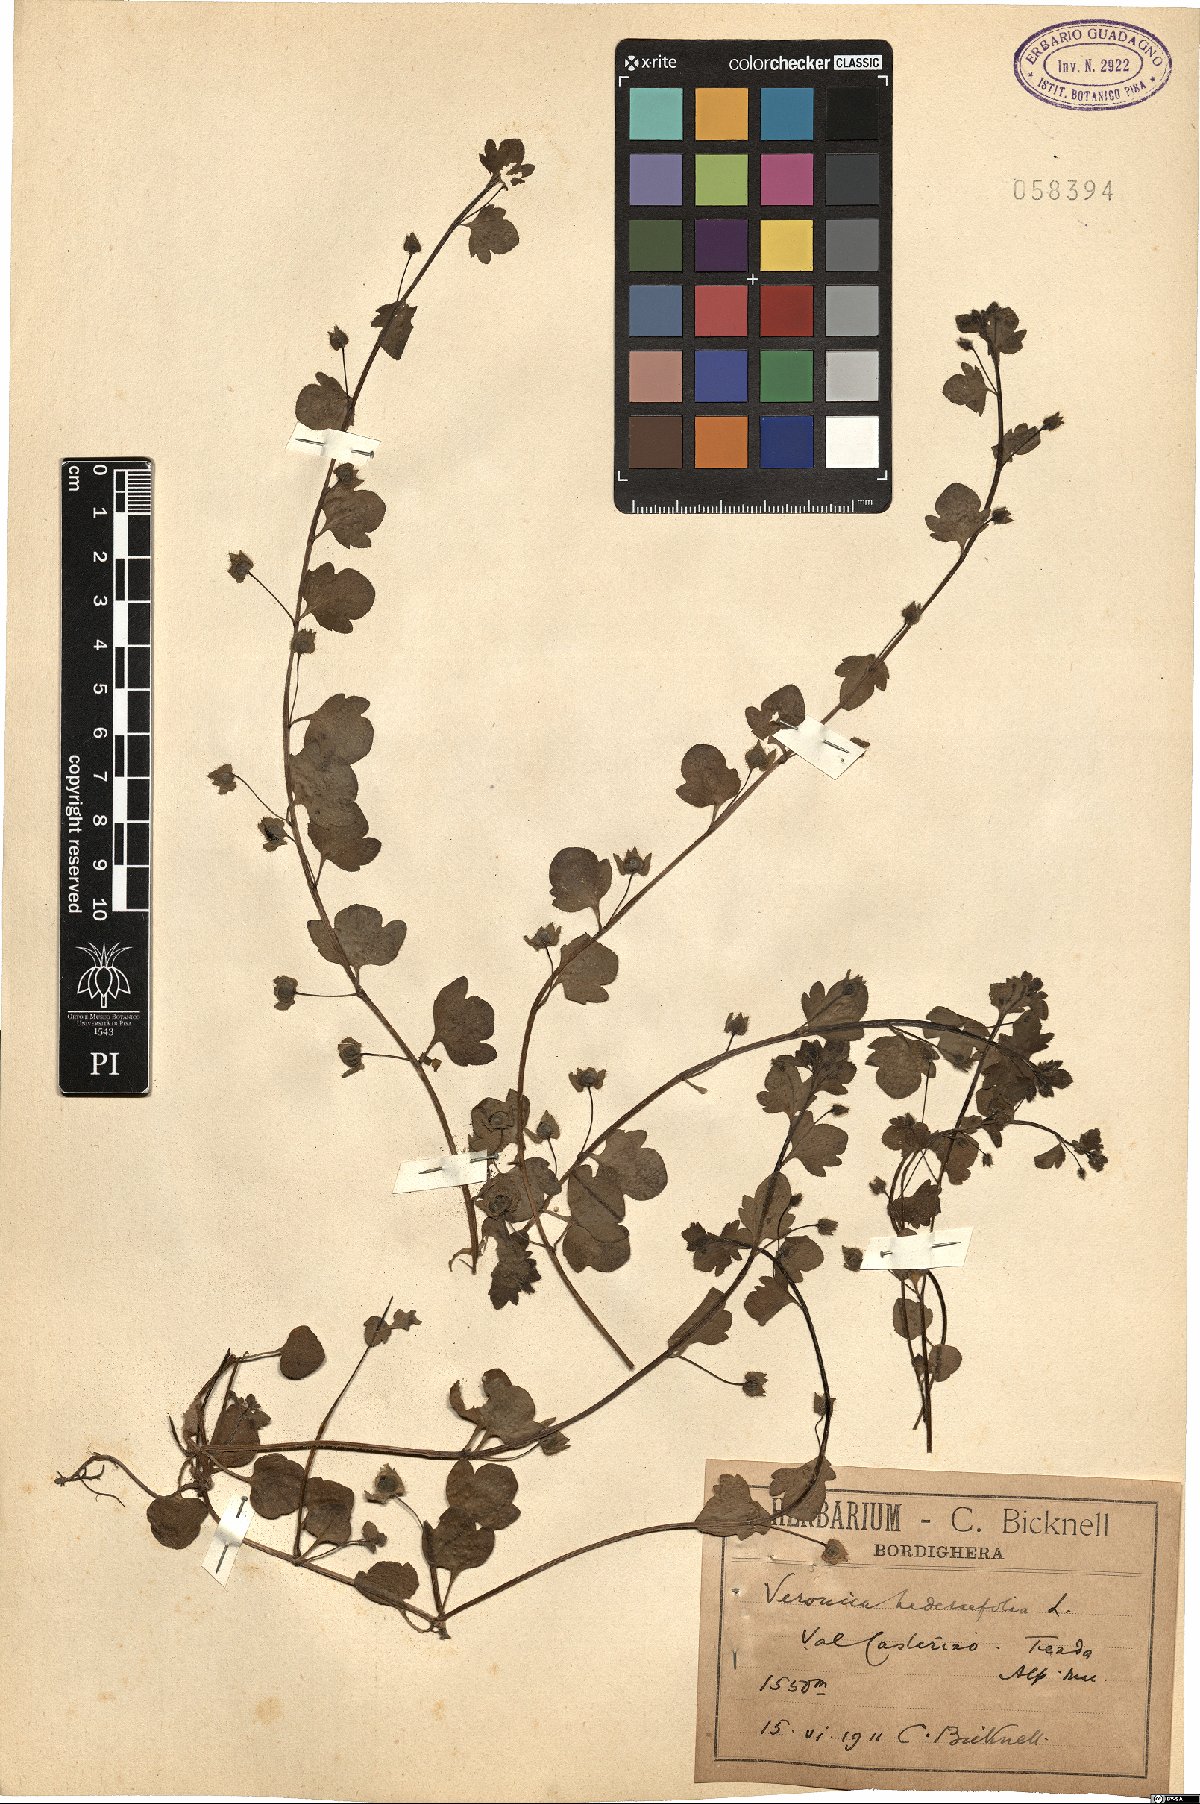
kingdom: Plantae
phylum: Tracheophyta
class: Magnoliopsida
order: Lamiales
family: Plantaginaceae
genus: Veronica
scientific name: Veronica hederifolia
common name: Ivy-leaved speedwell
